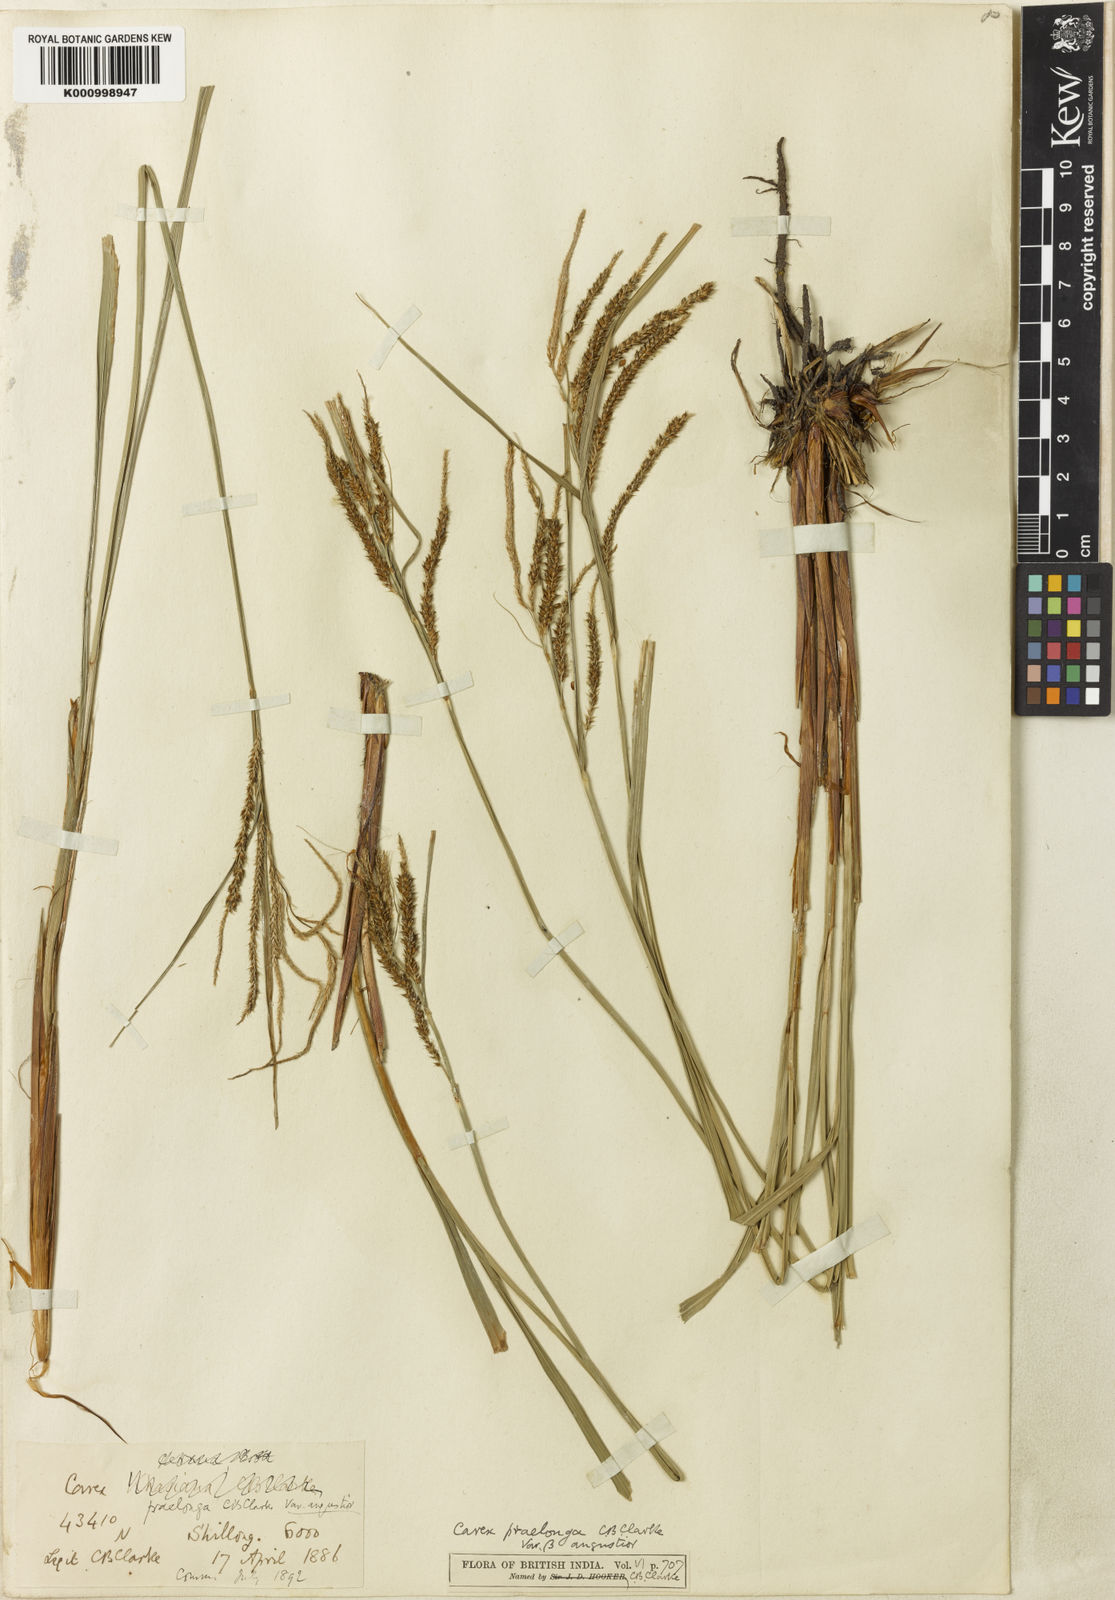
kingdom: Plantae
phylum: Tracheophyta
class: Liliopsida
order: Poales
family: Cyperaceae
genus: Carex
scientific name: Carex praelonga
